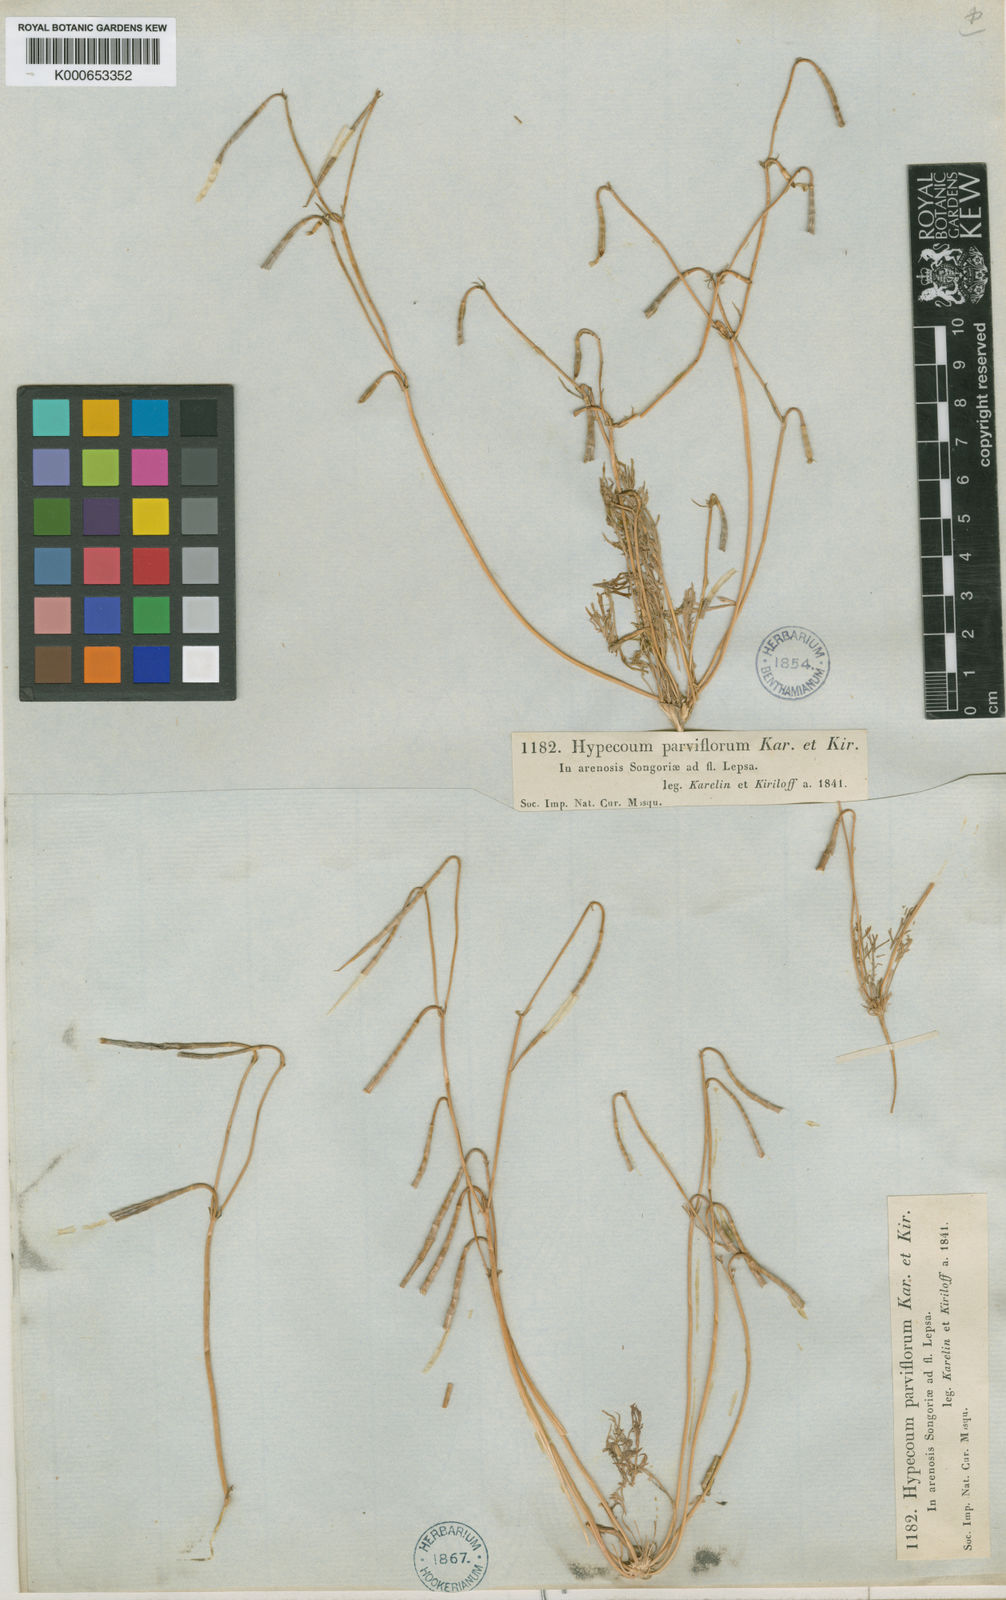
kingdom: Plantae
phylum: Tracheophyta
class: Magnoliopsida
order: Ranunculales
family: Papaveraceae
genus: Hypecoum
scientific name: Hypecoum parviflorum
